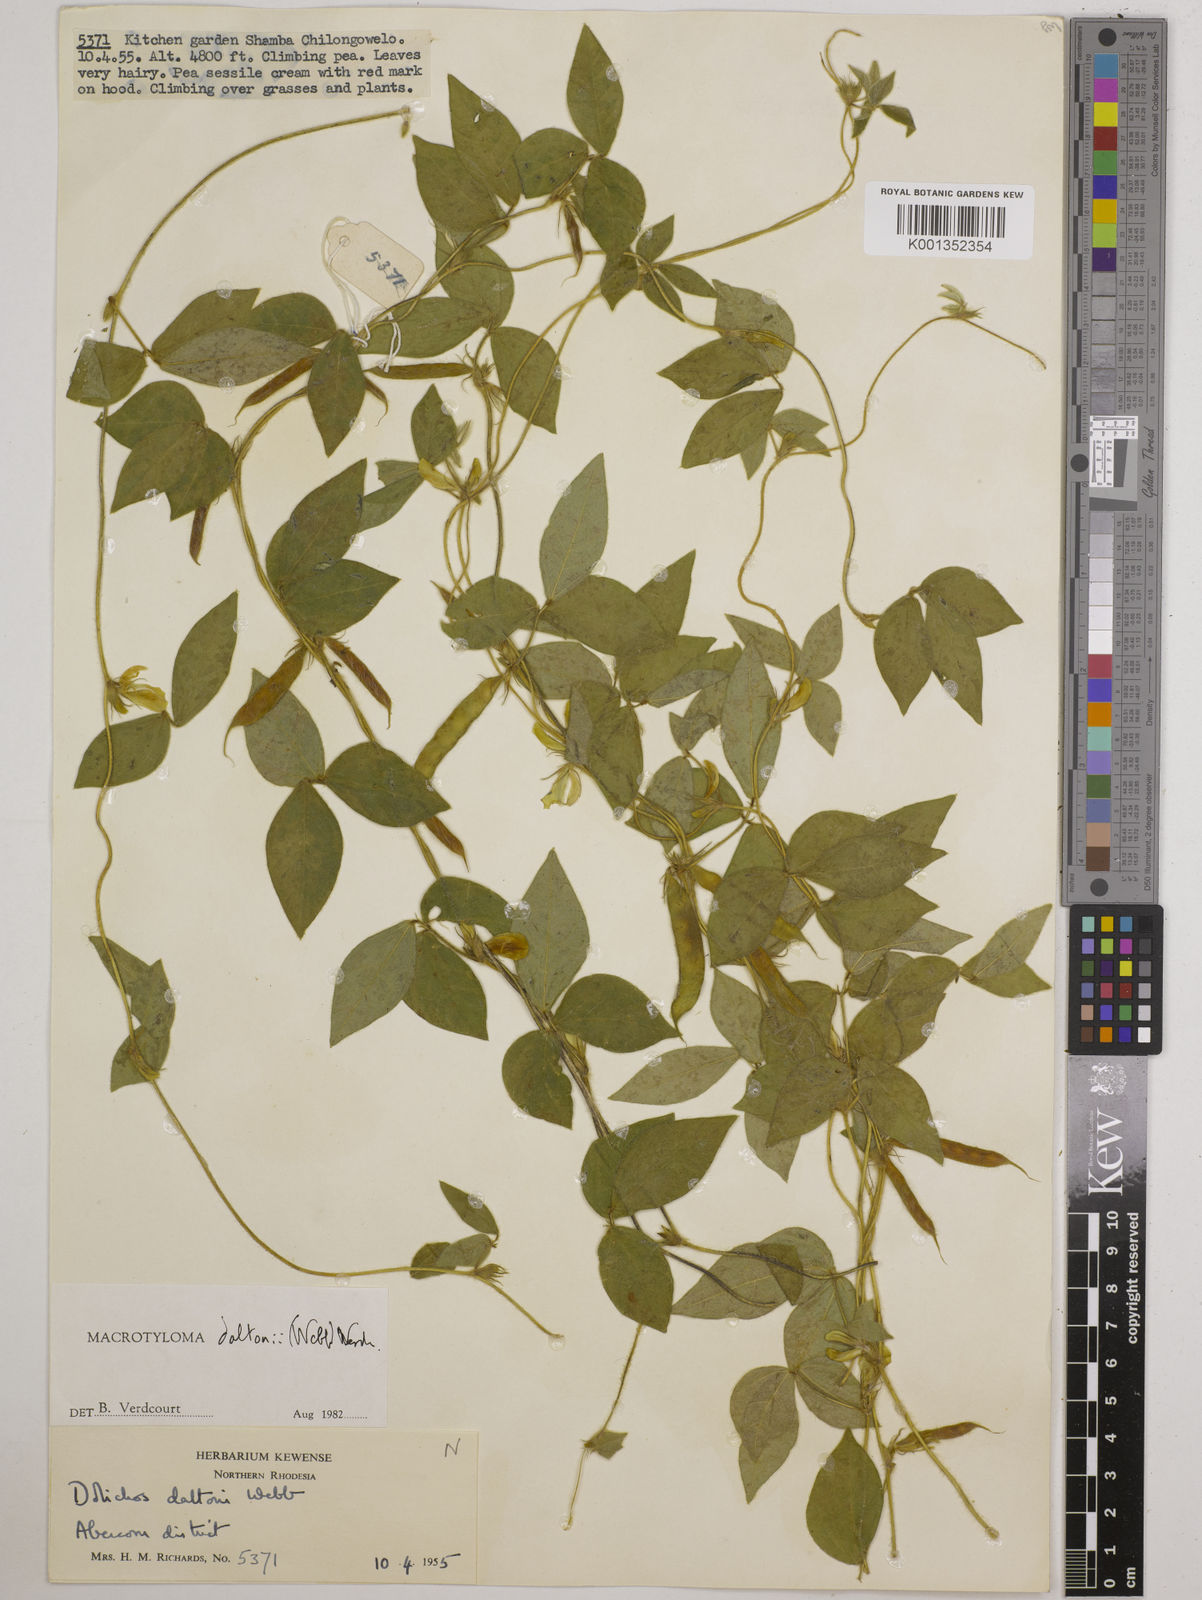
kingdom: Plantae
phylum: Tracheophyta
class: Magnoliopsida
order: Fabales
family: Fabaceae
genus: Macrotyloma
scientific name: Macrotyloma daltonii
